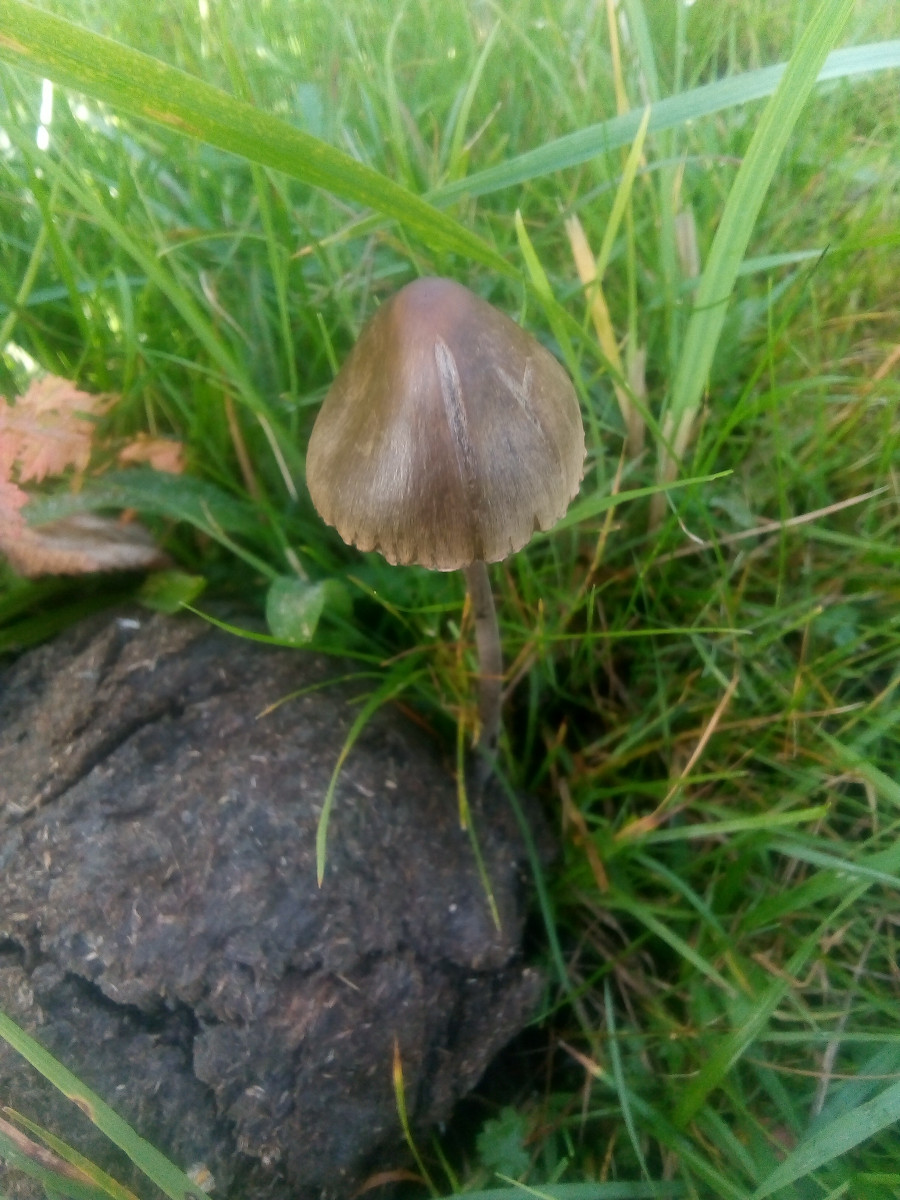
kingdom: Fungi
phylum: Basidiomycota
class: Agaricomycetes
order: Agaricales
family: Bolbitiaceae
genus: Panaeolus
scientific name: Panaeolus
